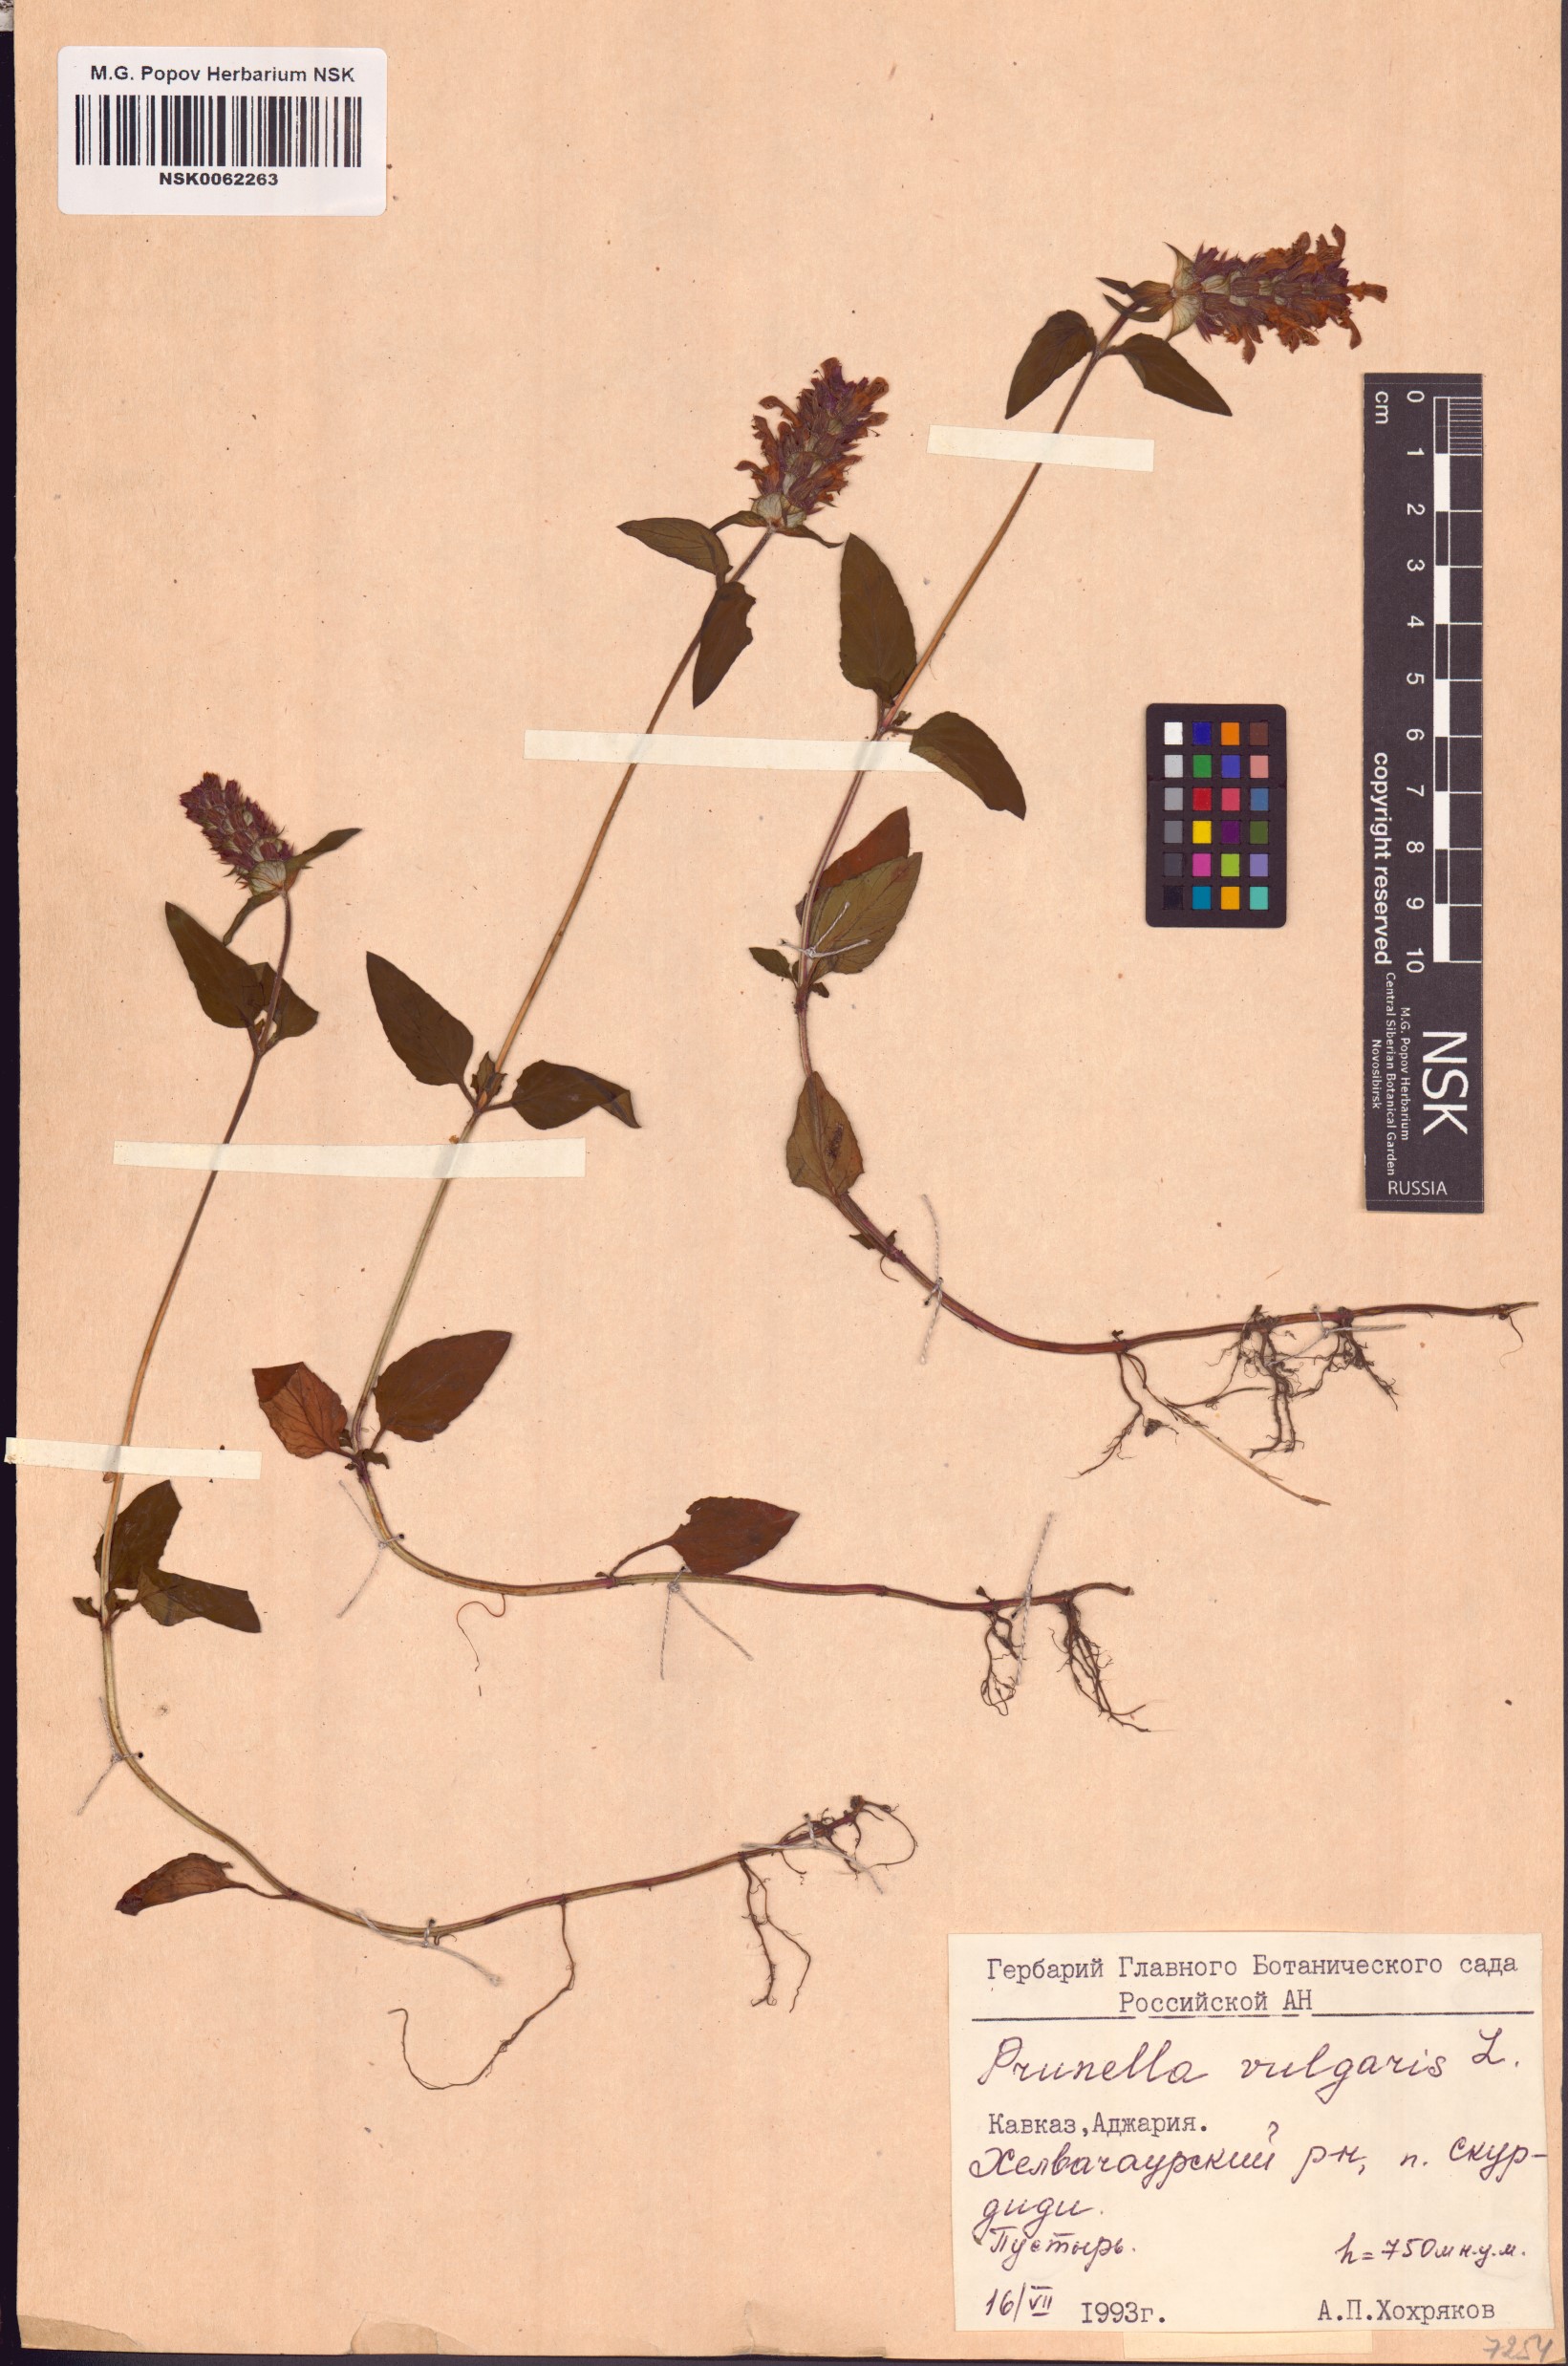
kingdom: Plantae
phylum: Tracheophyta
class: Magnoliopsida
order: Lamiales
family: Lamiaceae
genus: Prunella
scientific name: Prunella vulgaris
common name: Heal-all
